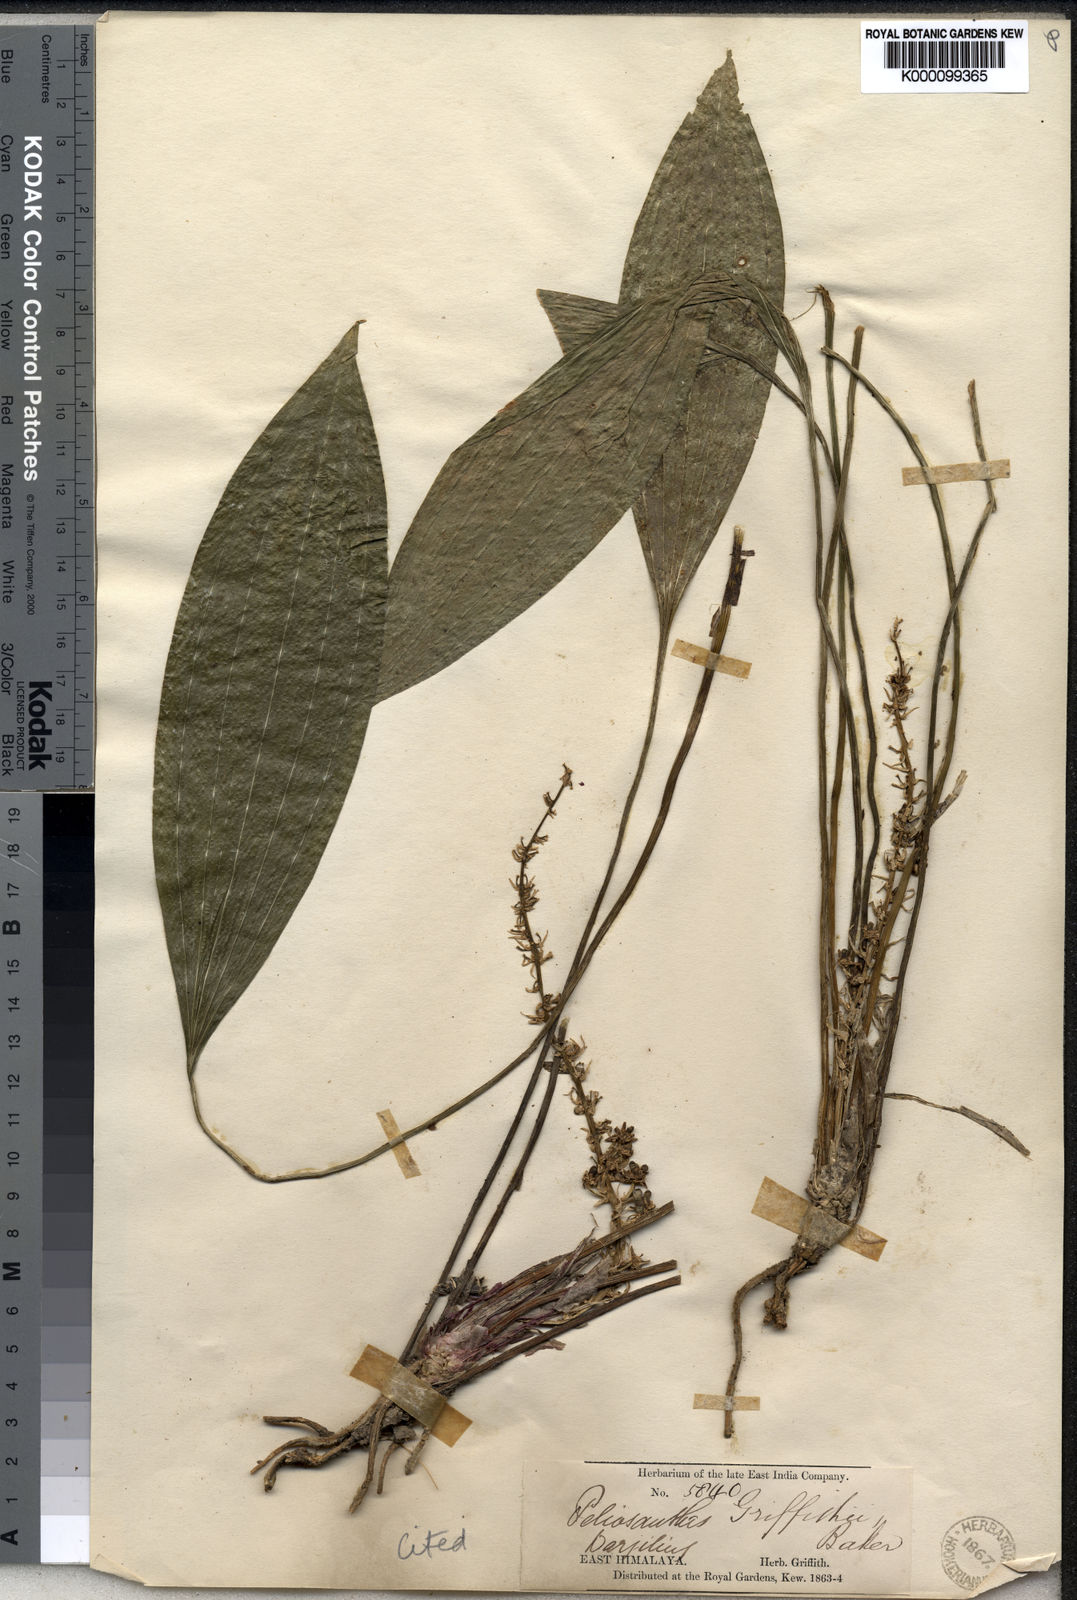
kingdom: Plantae
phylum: Tracheophyta
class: Liliopsida
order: Asparagales
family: Asparagaceae
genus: Peliosanthes
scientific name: Peliosanthes griffithii
